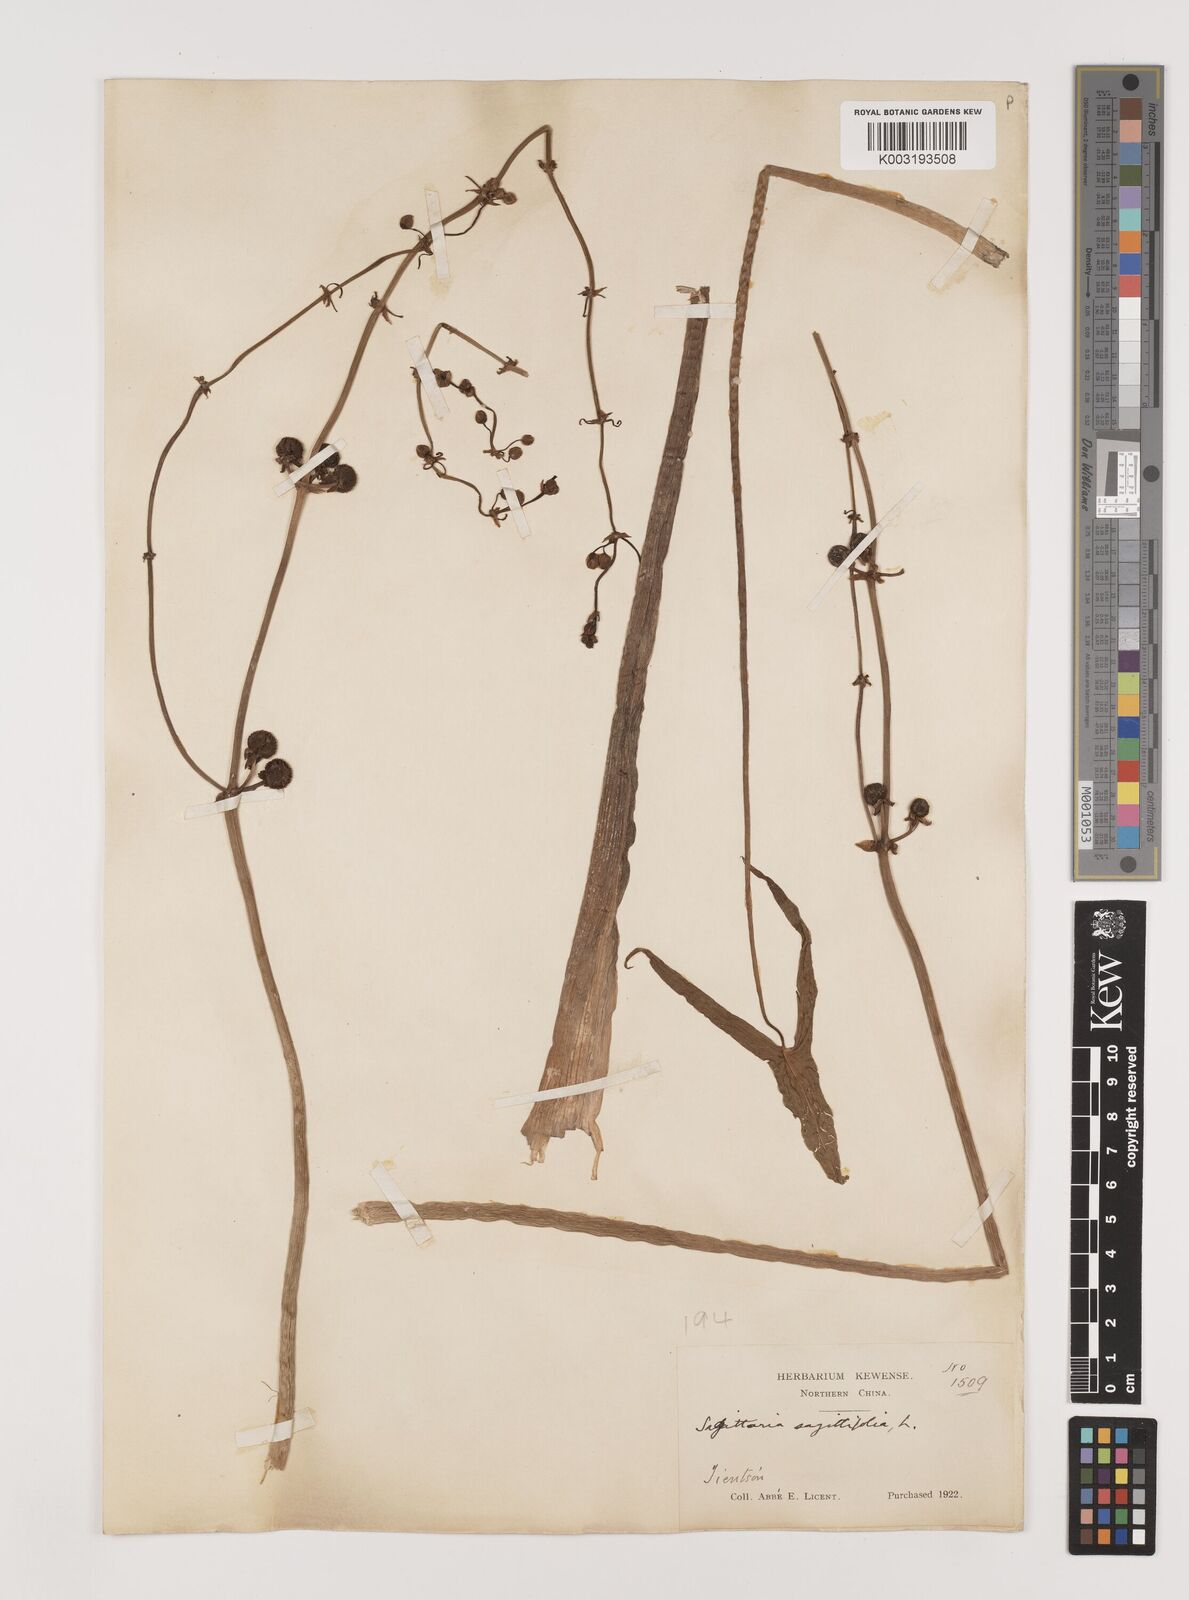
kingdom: Plantae
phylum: Tracheophyta
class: Liliopsida
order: Alismatales
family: Alismataceae
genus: Sagittaria
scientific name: Sagittaria sagittifolia
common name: Arrowhead
